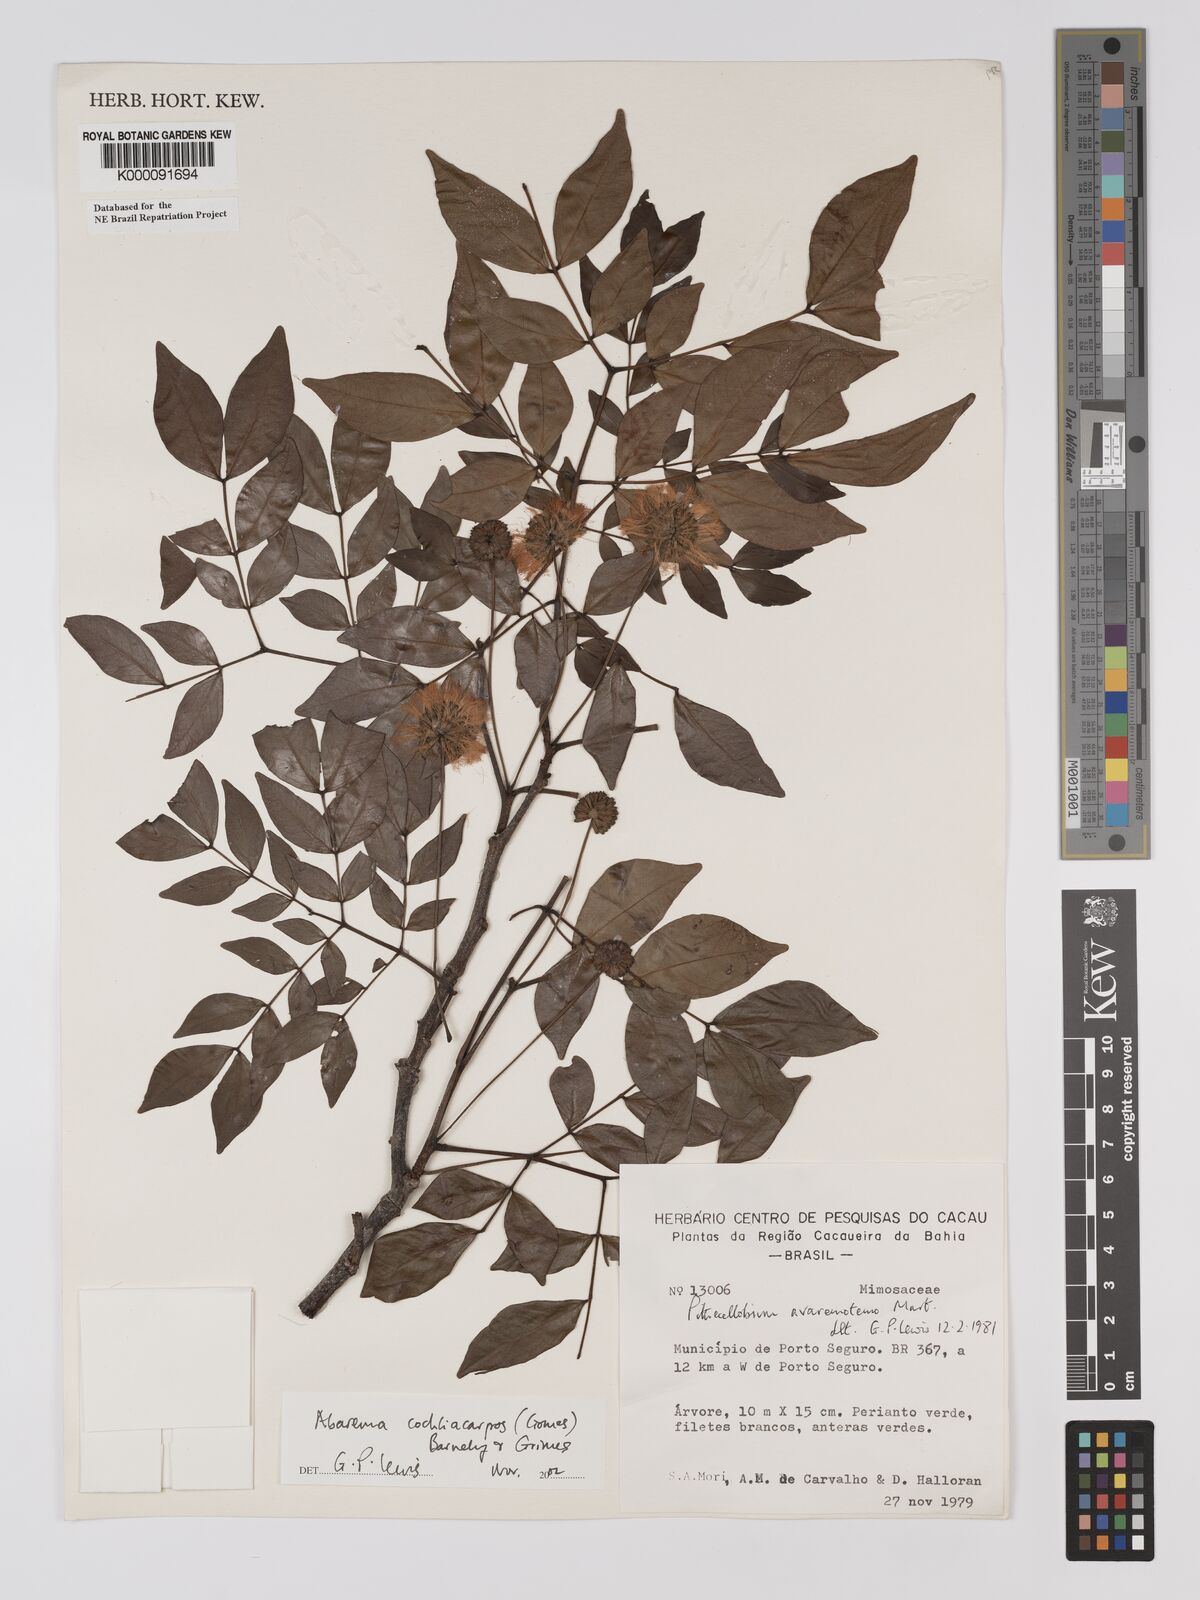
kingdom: Plantae
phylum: Tracheophyta
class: Magnoliopsida
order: Fabales
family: Fabaceae
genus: Abarema
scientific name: Abarema
